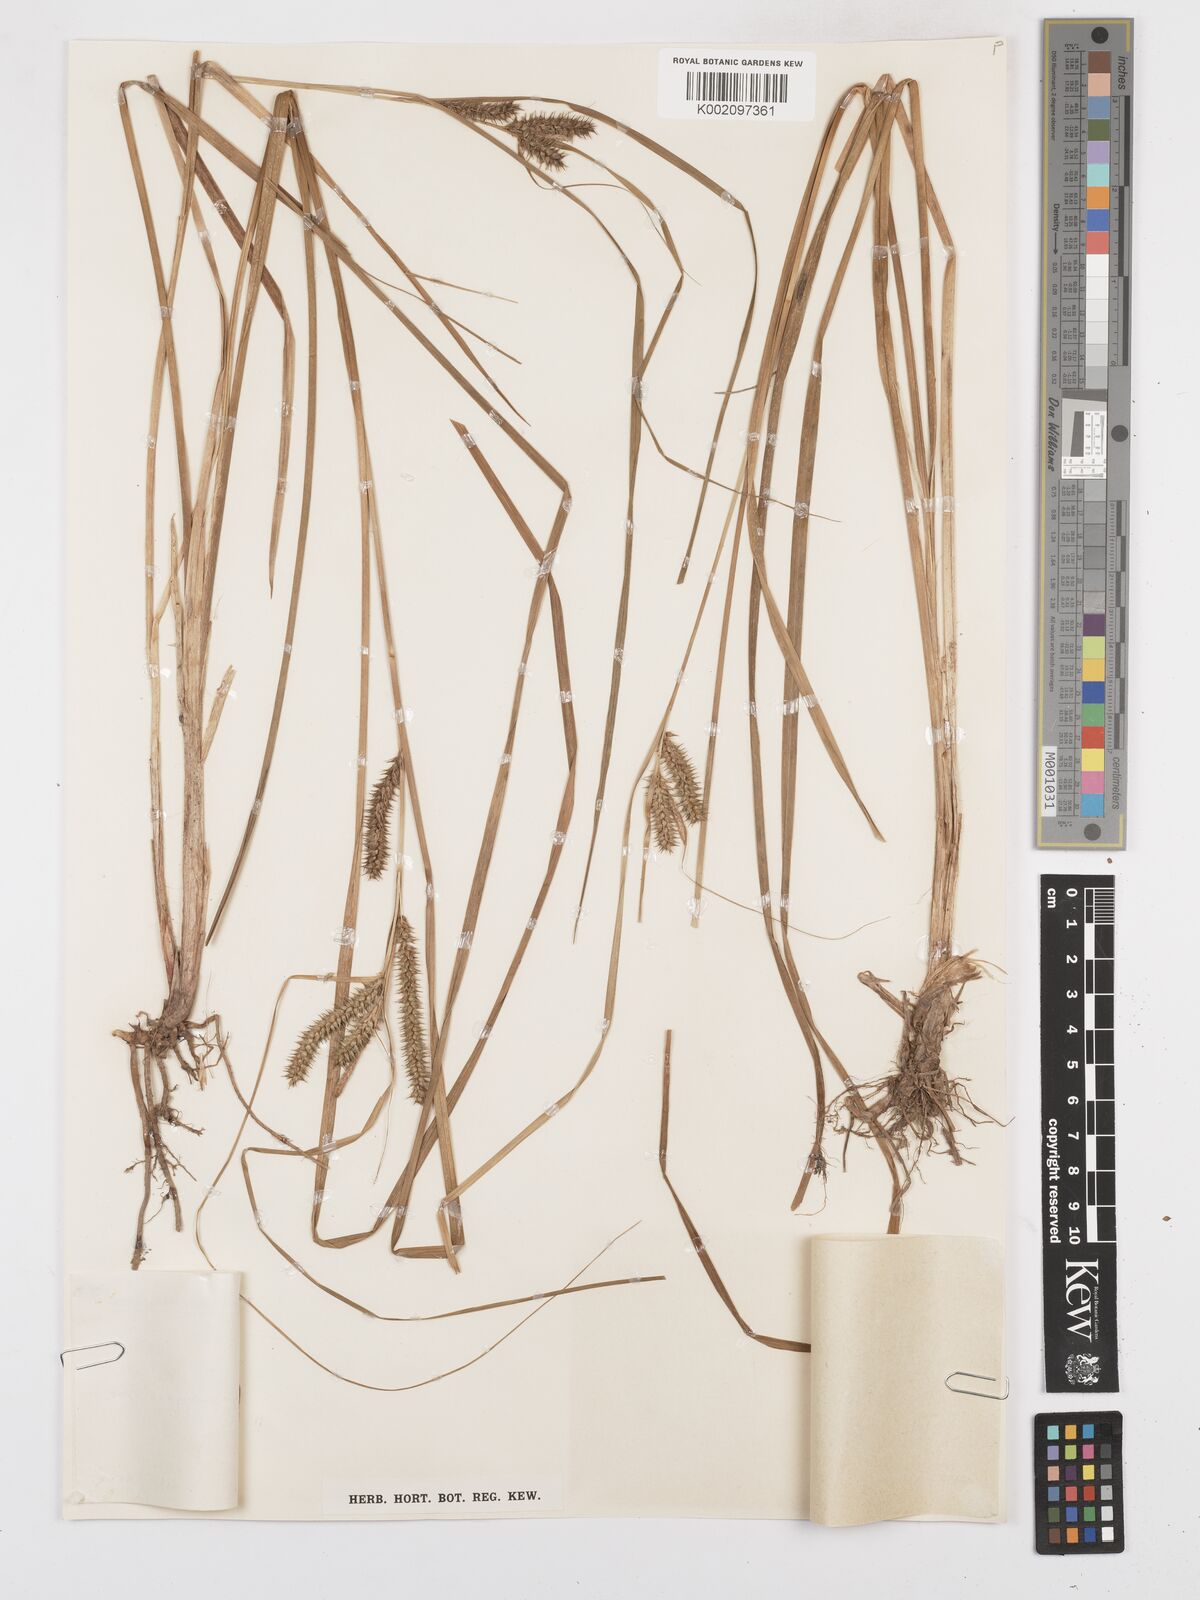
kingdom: Plantae
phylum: Tracheophyta
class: Liliopsida
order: Poales
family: Cyperaceae
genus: Carex
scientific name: Carex sphaerogyna
